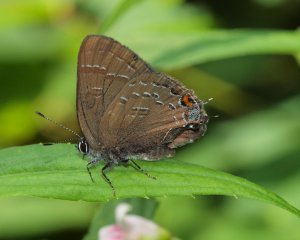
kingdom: Animalia
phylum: Arthropoda
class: Insecta
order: Lepidoptera
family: Lycaenidae
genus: Satyrium
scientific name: Satyrium calanus
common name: Banded Hairstreak
